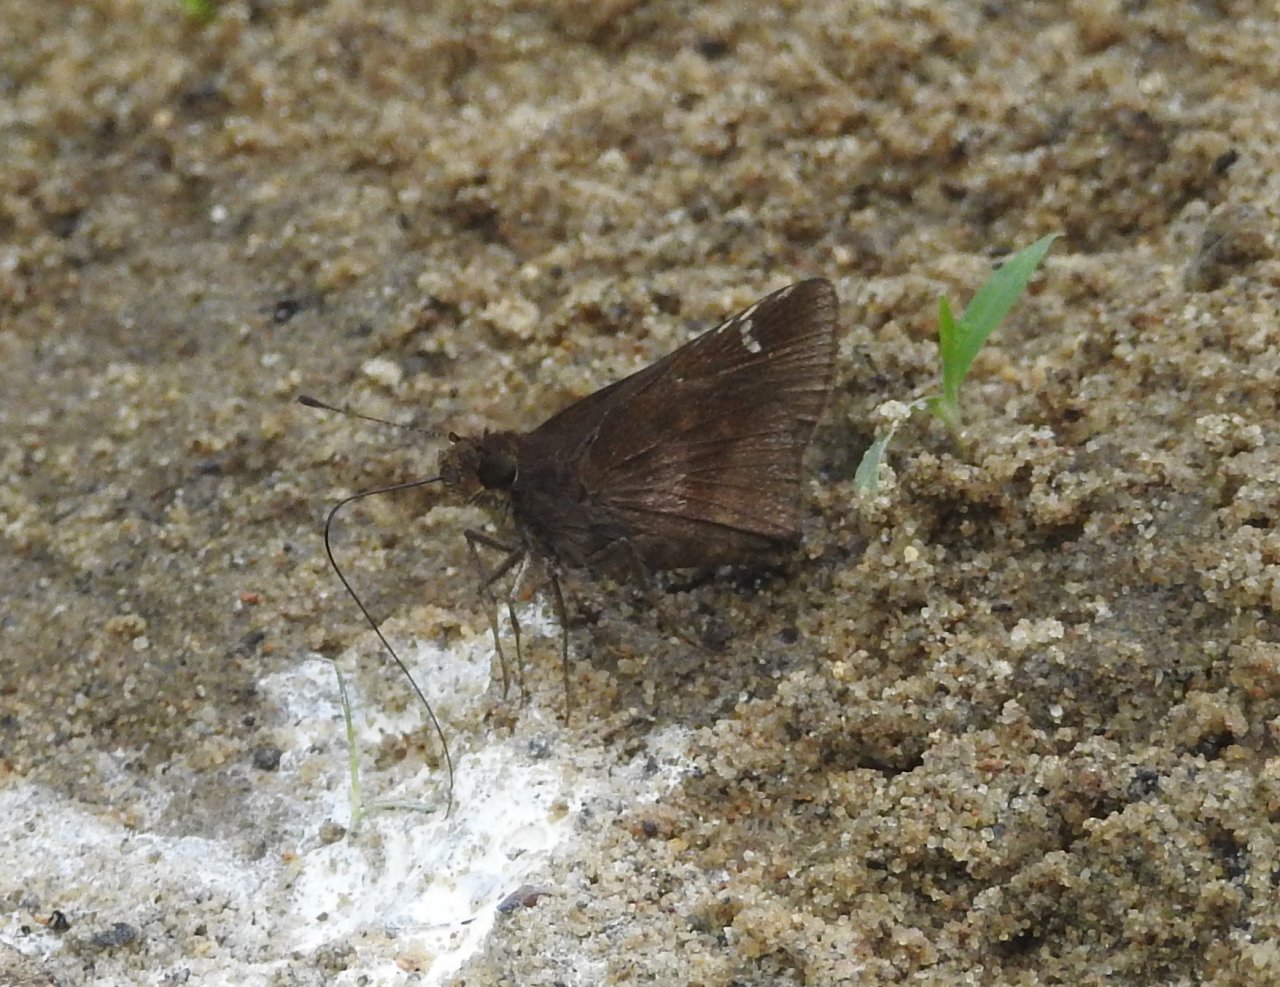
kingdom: Animalia
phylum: Arthropoda
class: Insecta
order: Lepidoptera
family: Hesperiidae
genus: Lerema
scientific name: Lerema accius
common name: Clouded Skipper
